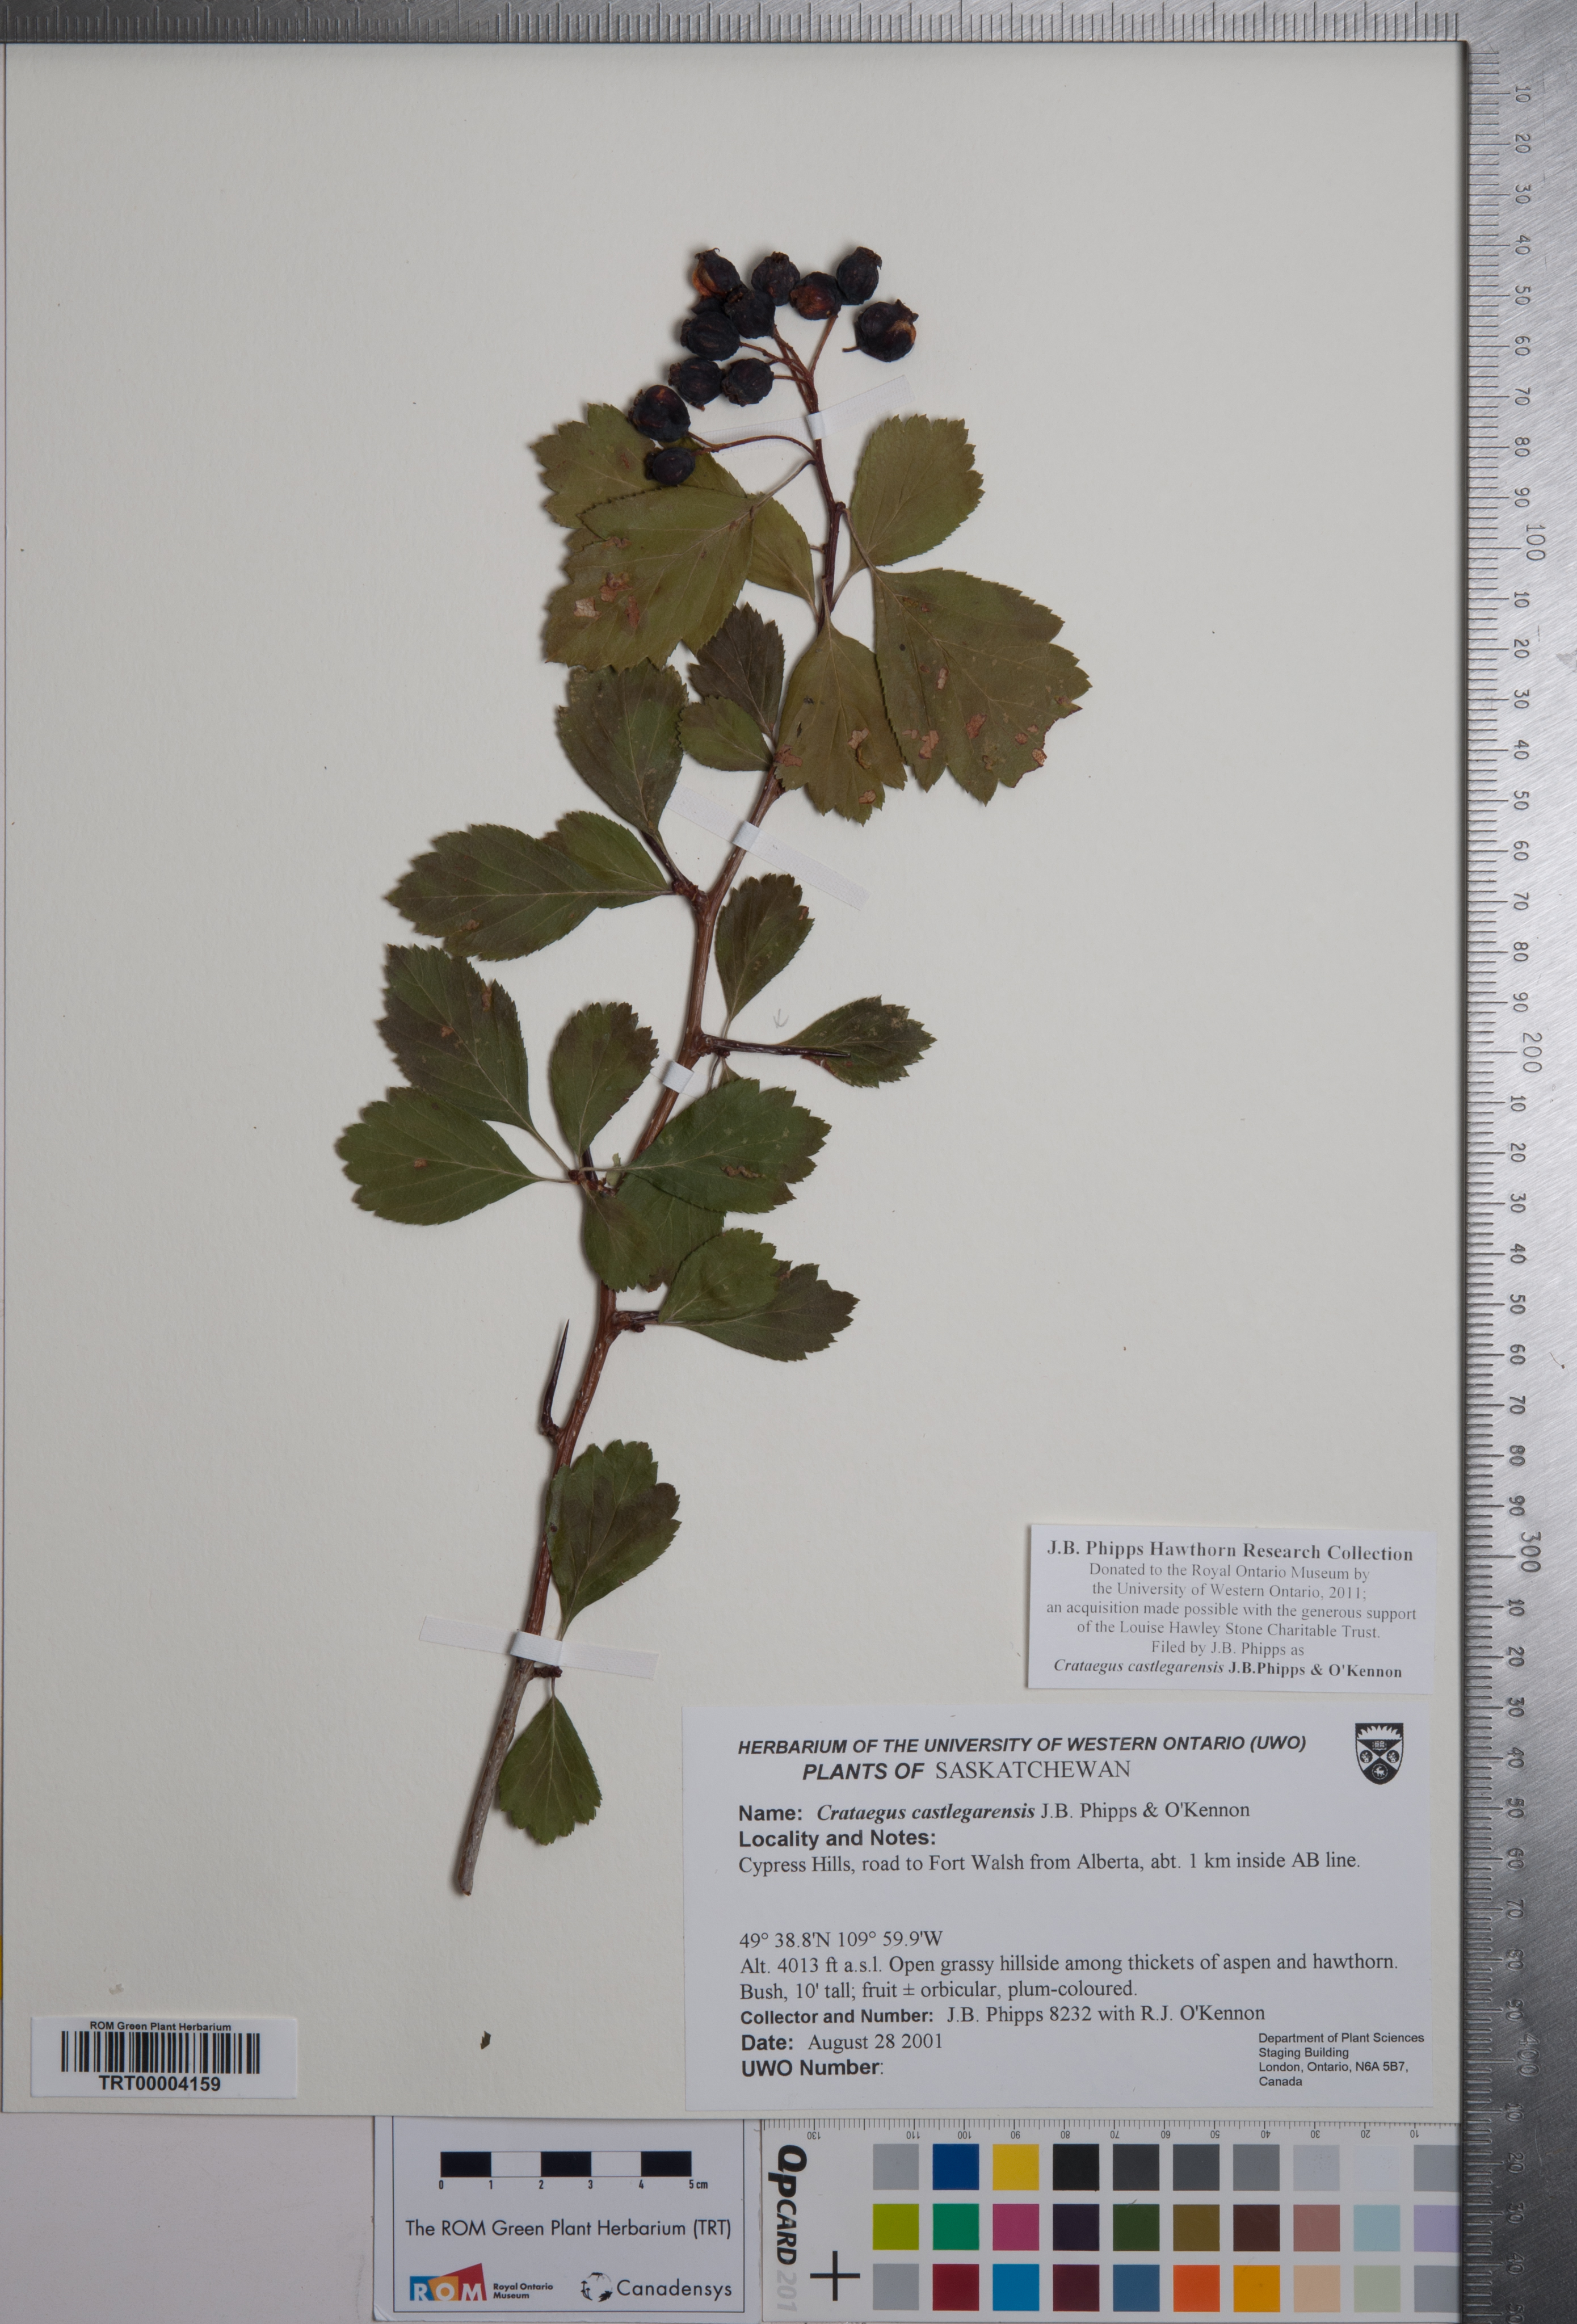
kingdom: Plantae
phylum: Tracheophyta
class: Magnoliopsida
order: Rosales
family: Rosaceae
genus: Crataegus
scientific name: Crataegus castlegarensis
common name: Castlegar hawthorn
